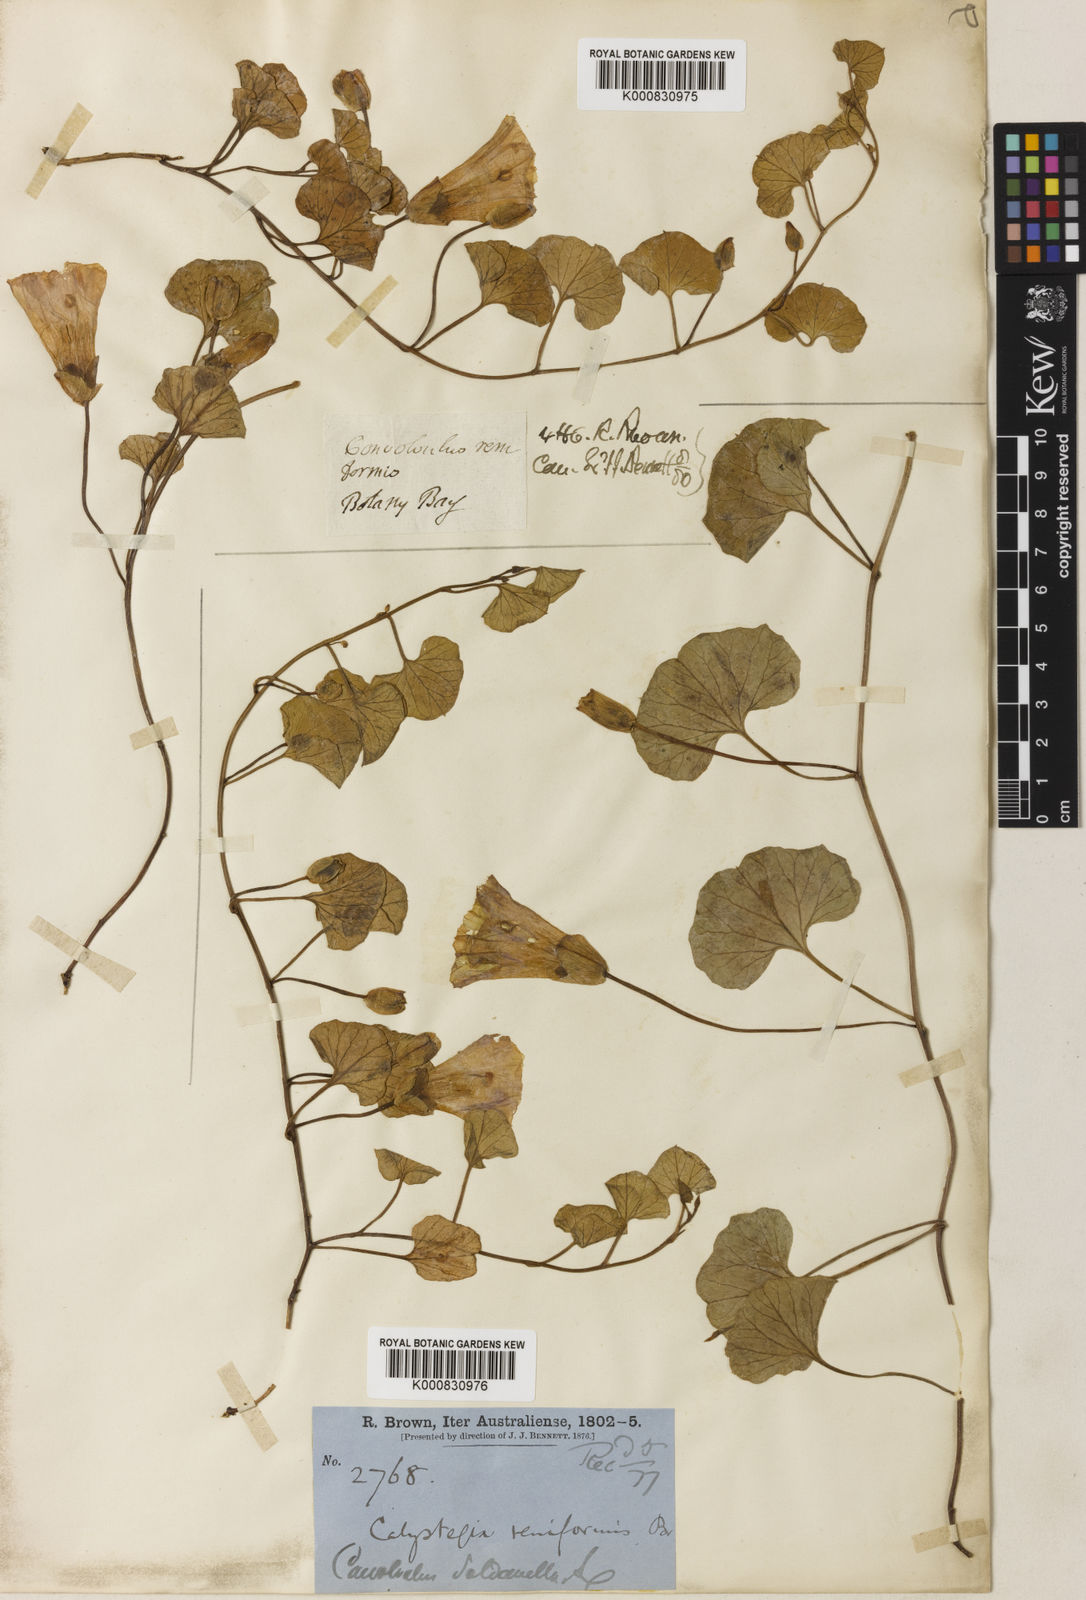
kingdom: Plantae
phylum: Tracheophyta
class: Magnoliopsida
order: Solanales
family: Convolvulaceae
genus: Calystegia
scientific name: Calystegia soldanella
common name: Sea bindweed
